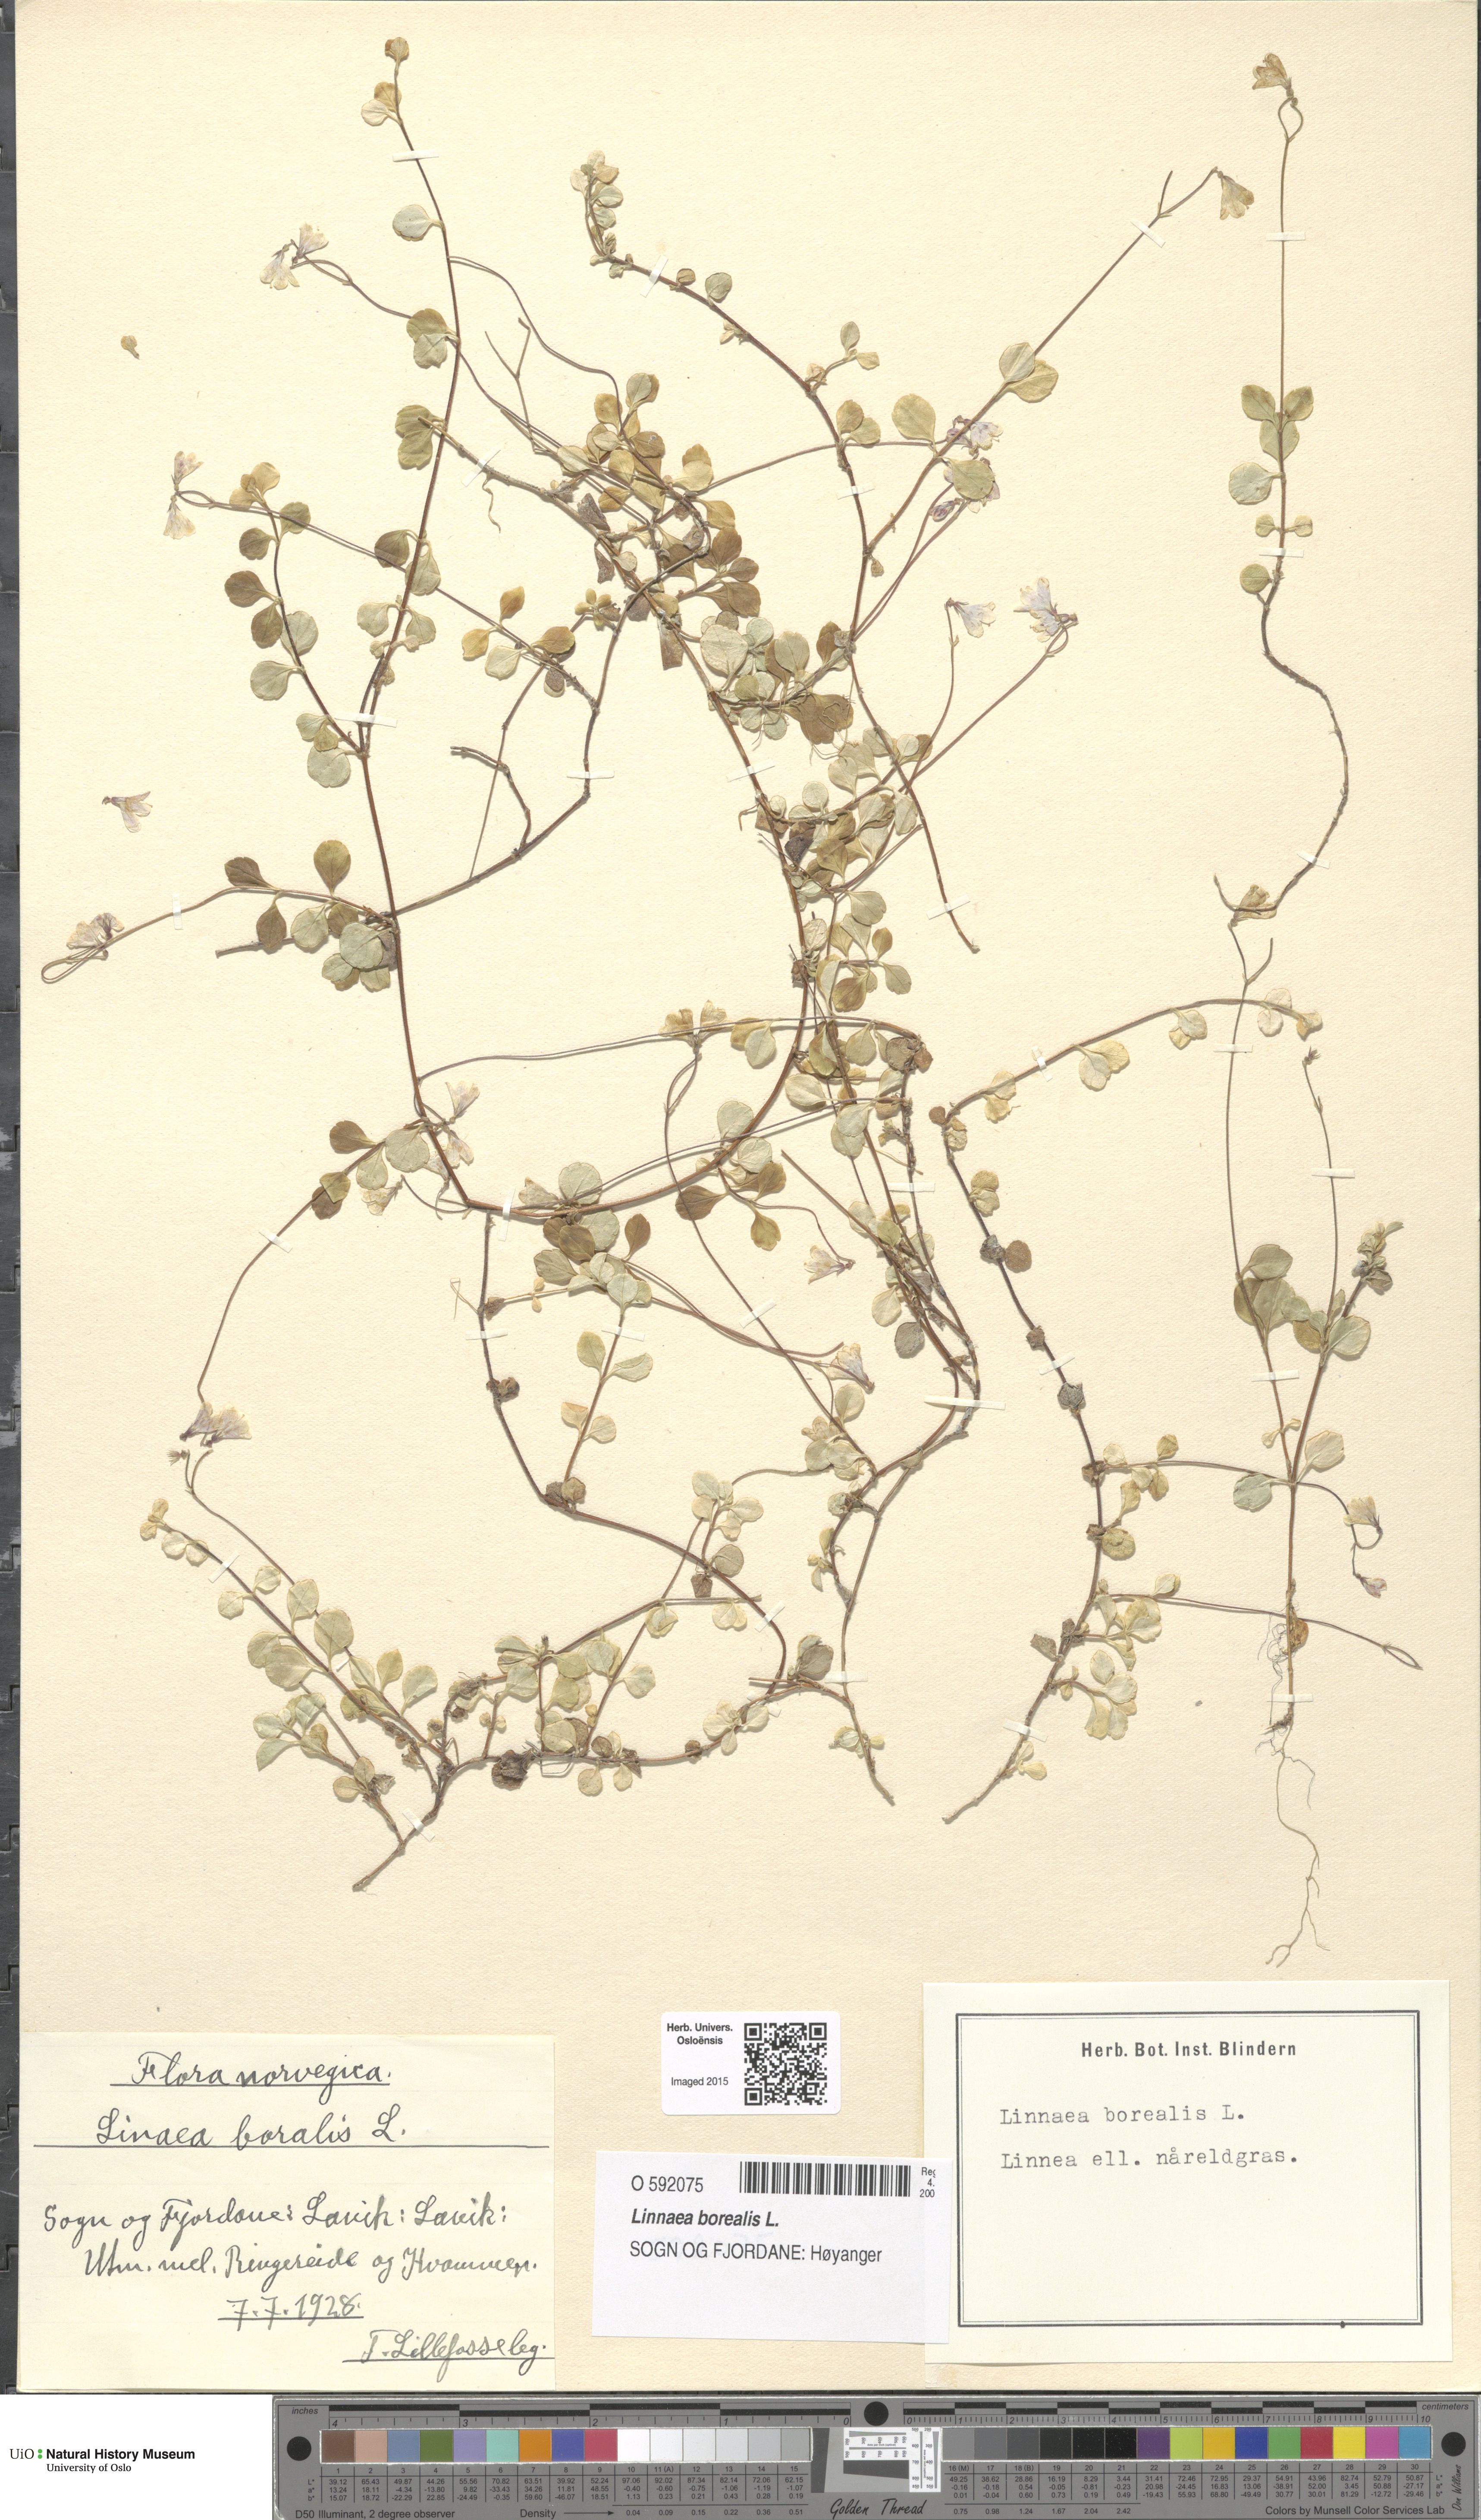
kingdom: Plantae
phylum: Tracheophyta
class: Magnoliopsida
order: Dipsacales
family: Caprifoliaceae
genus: Linnaea
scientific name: Linnaea borealis
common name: Twinflower
